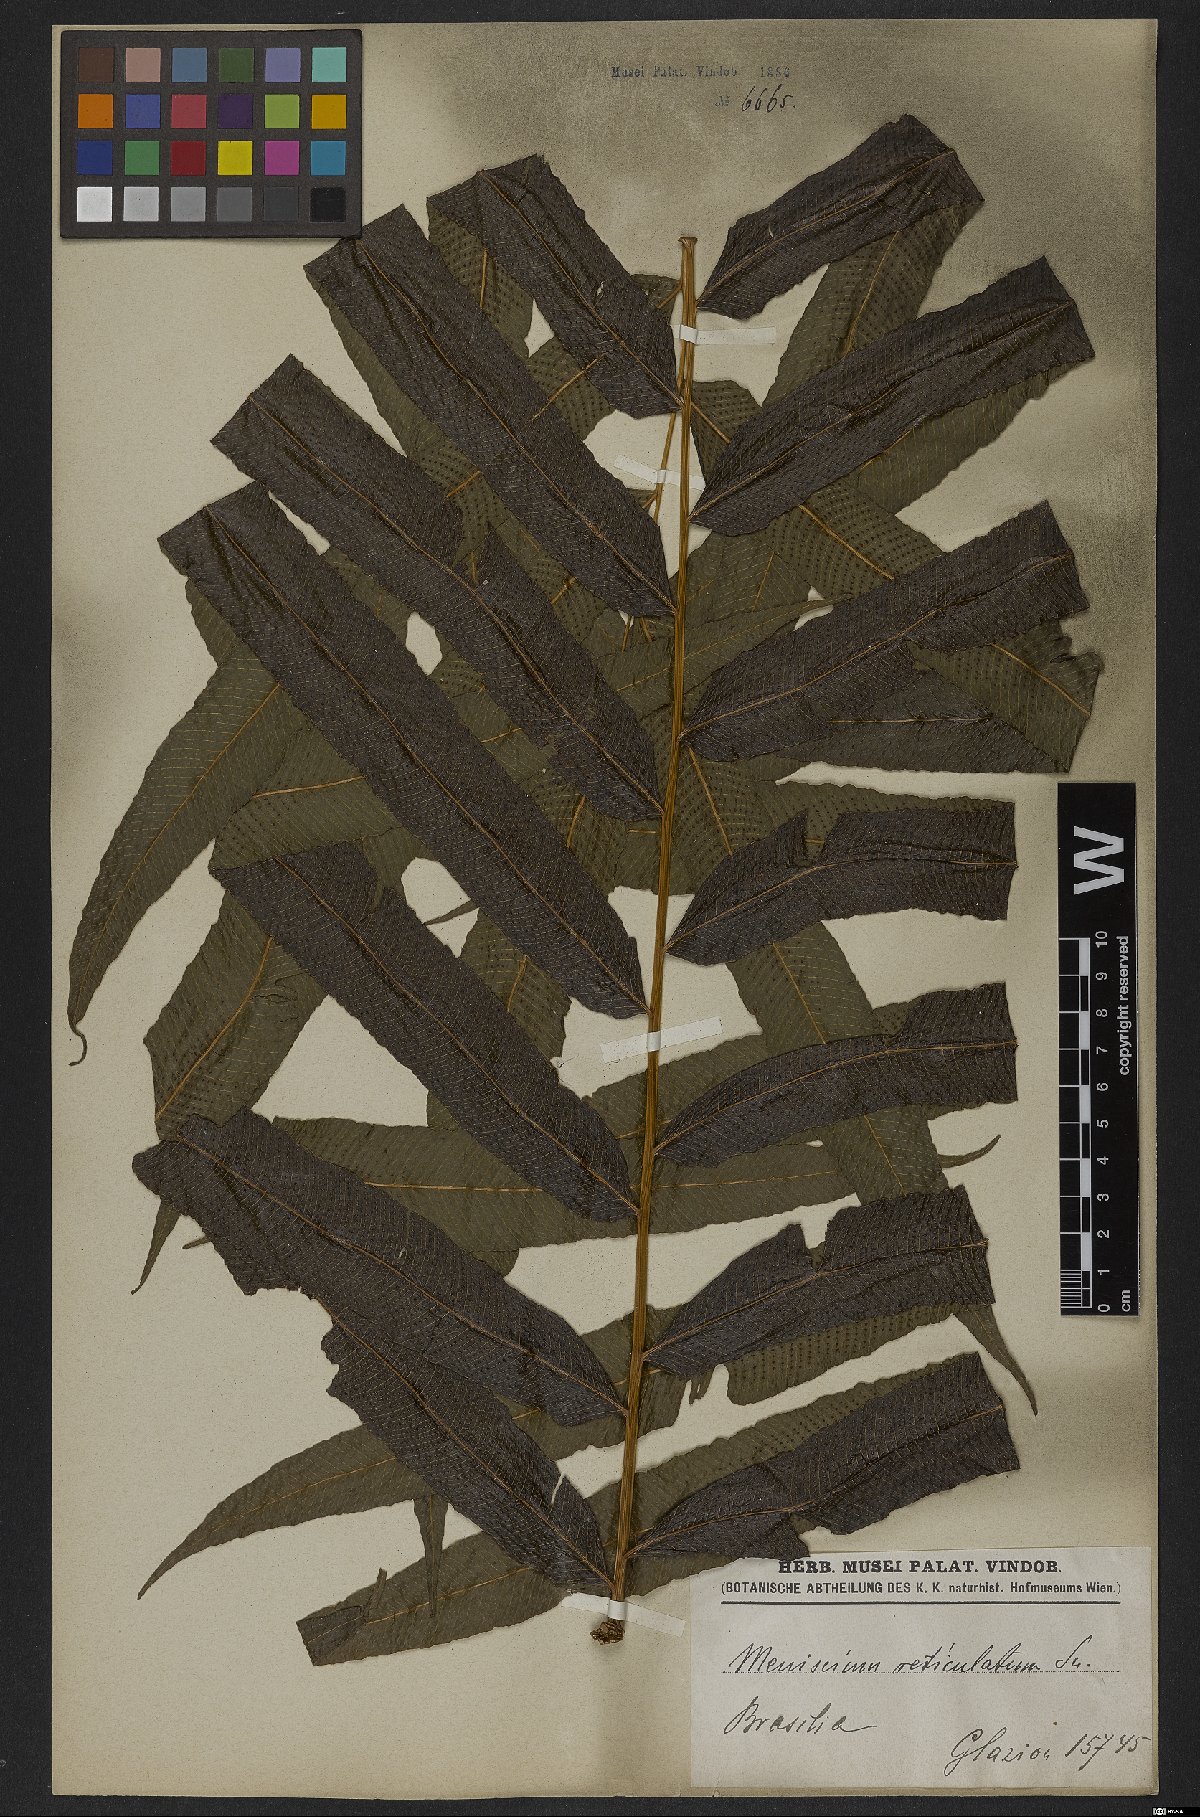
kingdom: Plantae
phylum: Tracheophyta
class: Polypodiopsida
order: Polypodiales
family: Thelypteridaceae
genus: Meniscium
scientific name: Meniscium reticulatum
